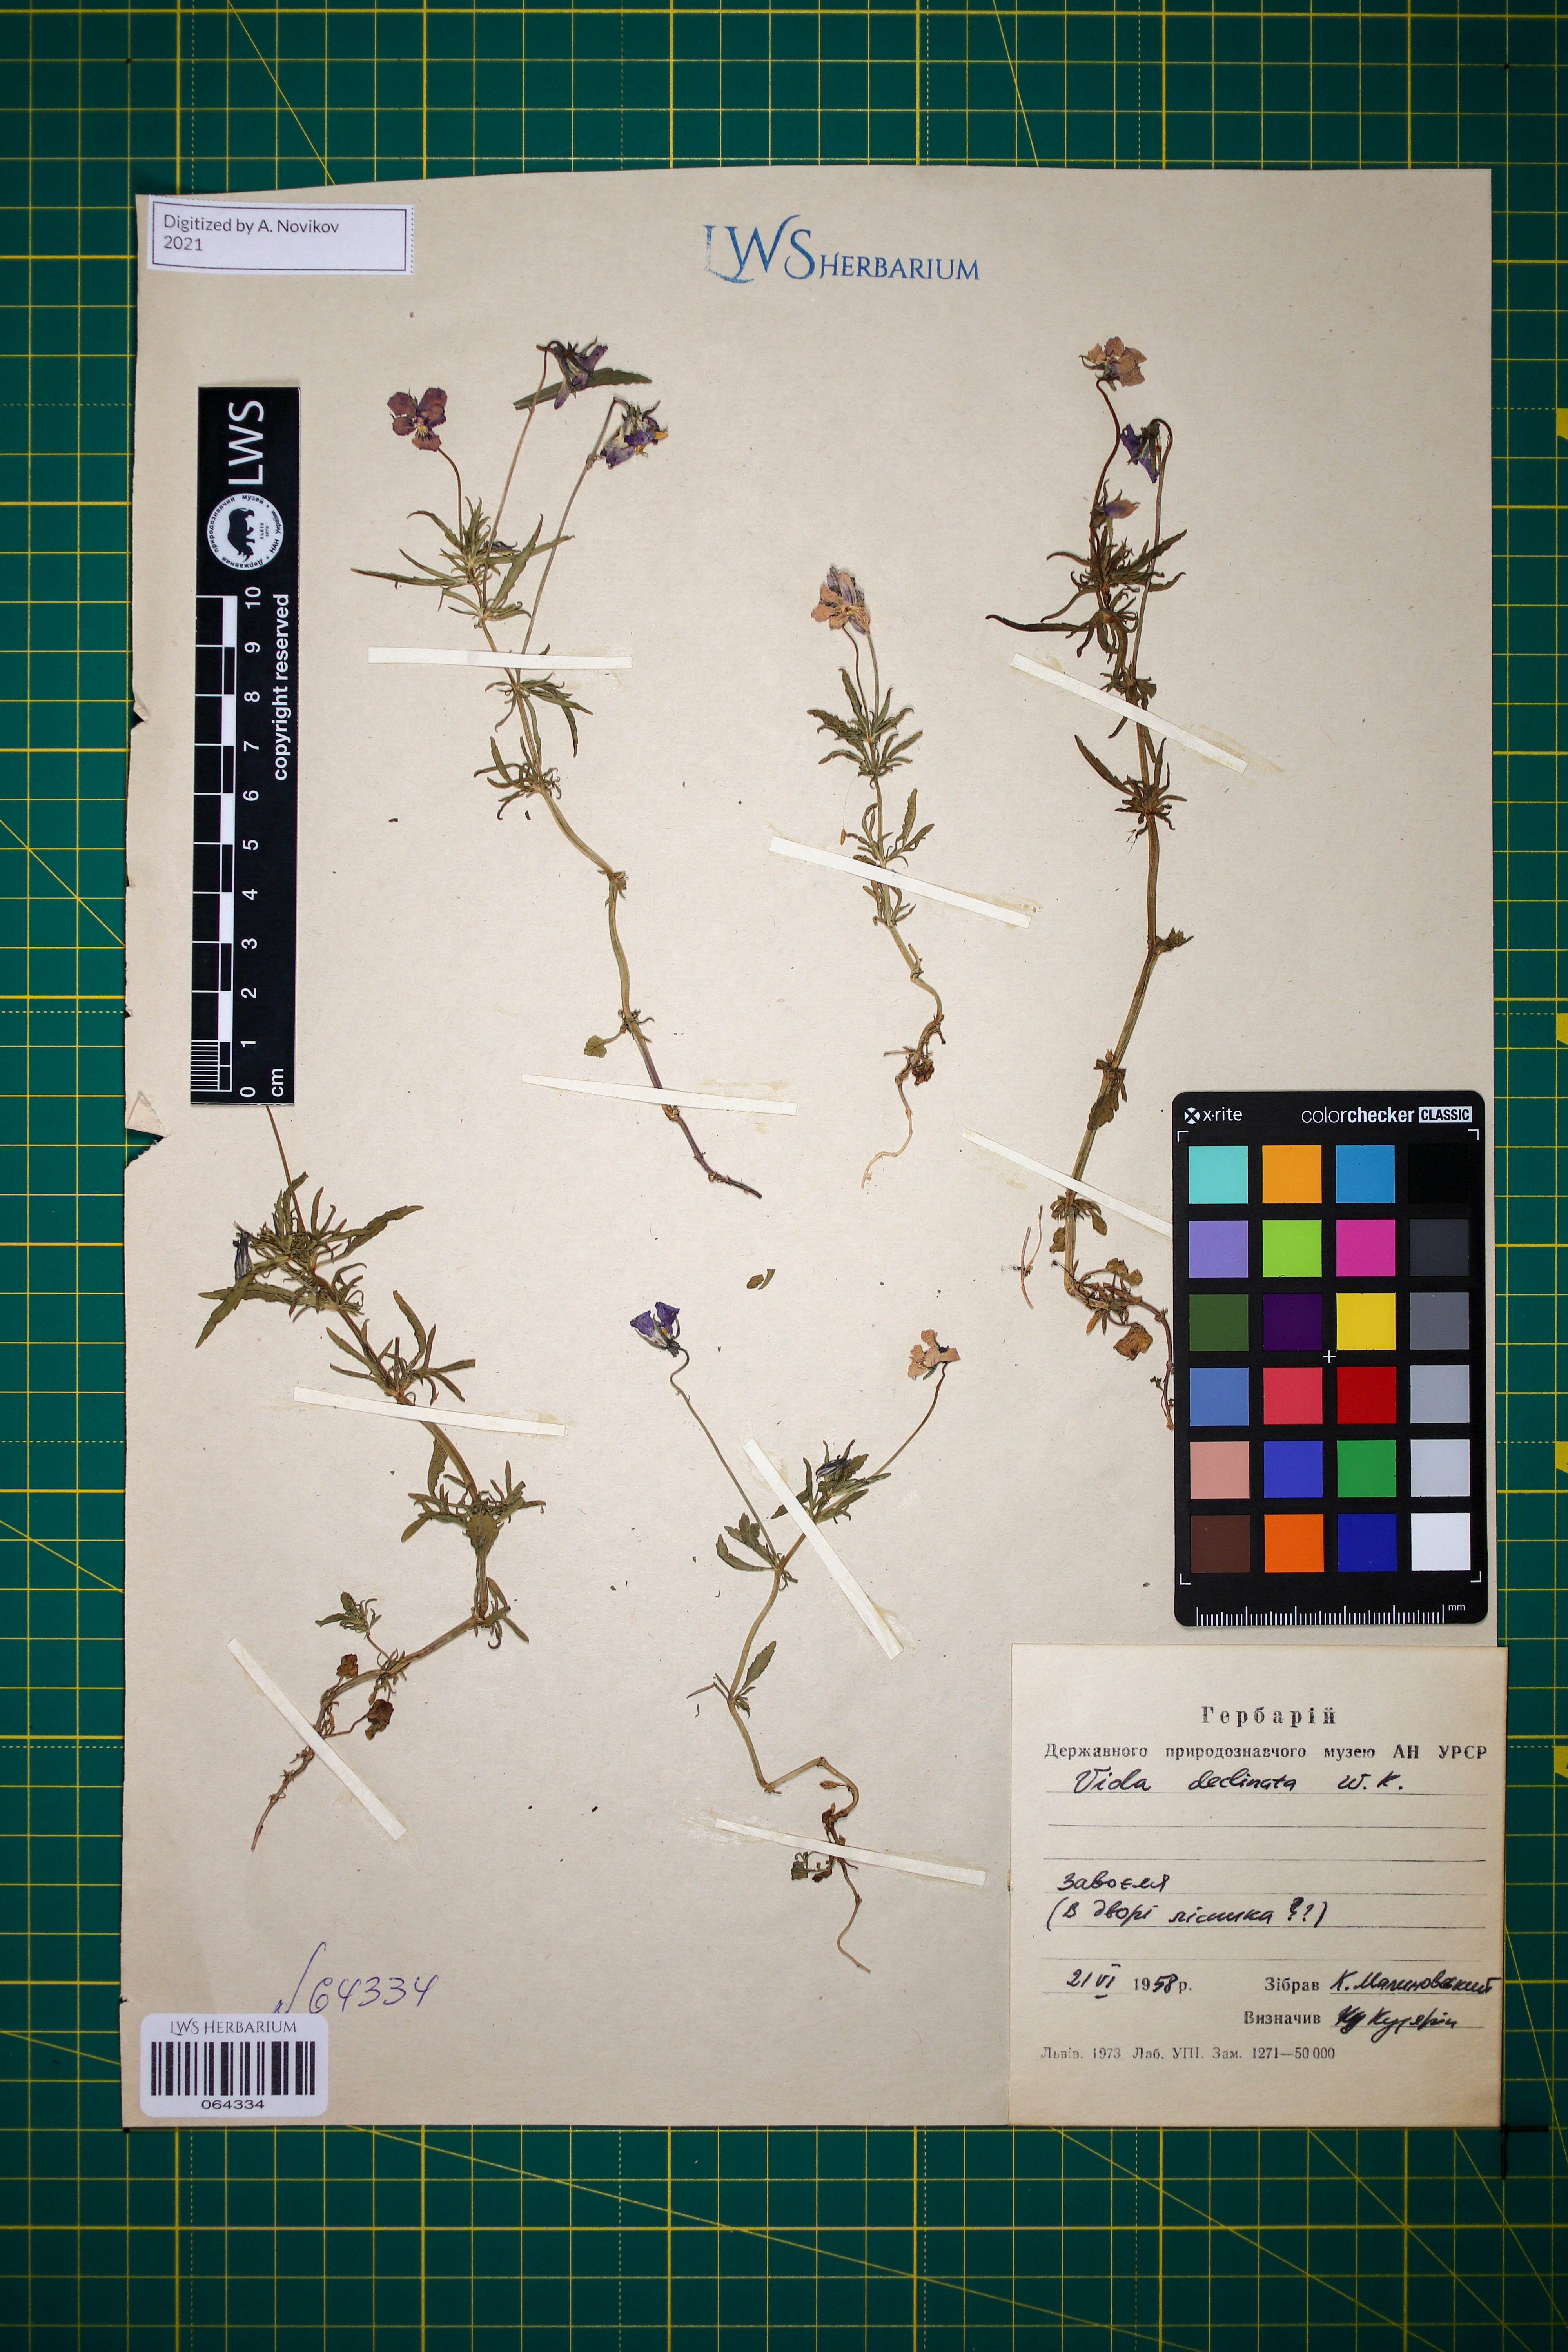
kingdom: Plantae
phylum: Tracheophyta
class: Magnoliopsida
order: Malpighiales
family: Violaceae
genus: Viola
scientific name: Viola declinata
